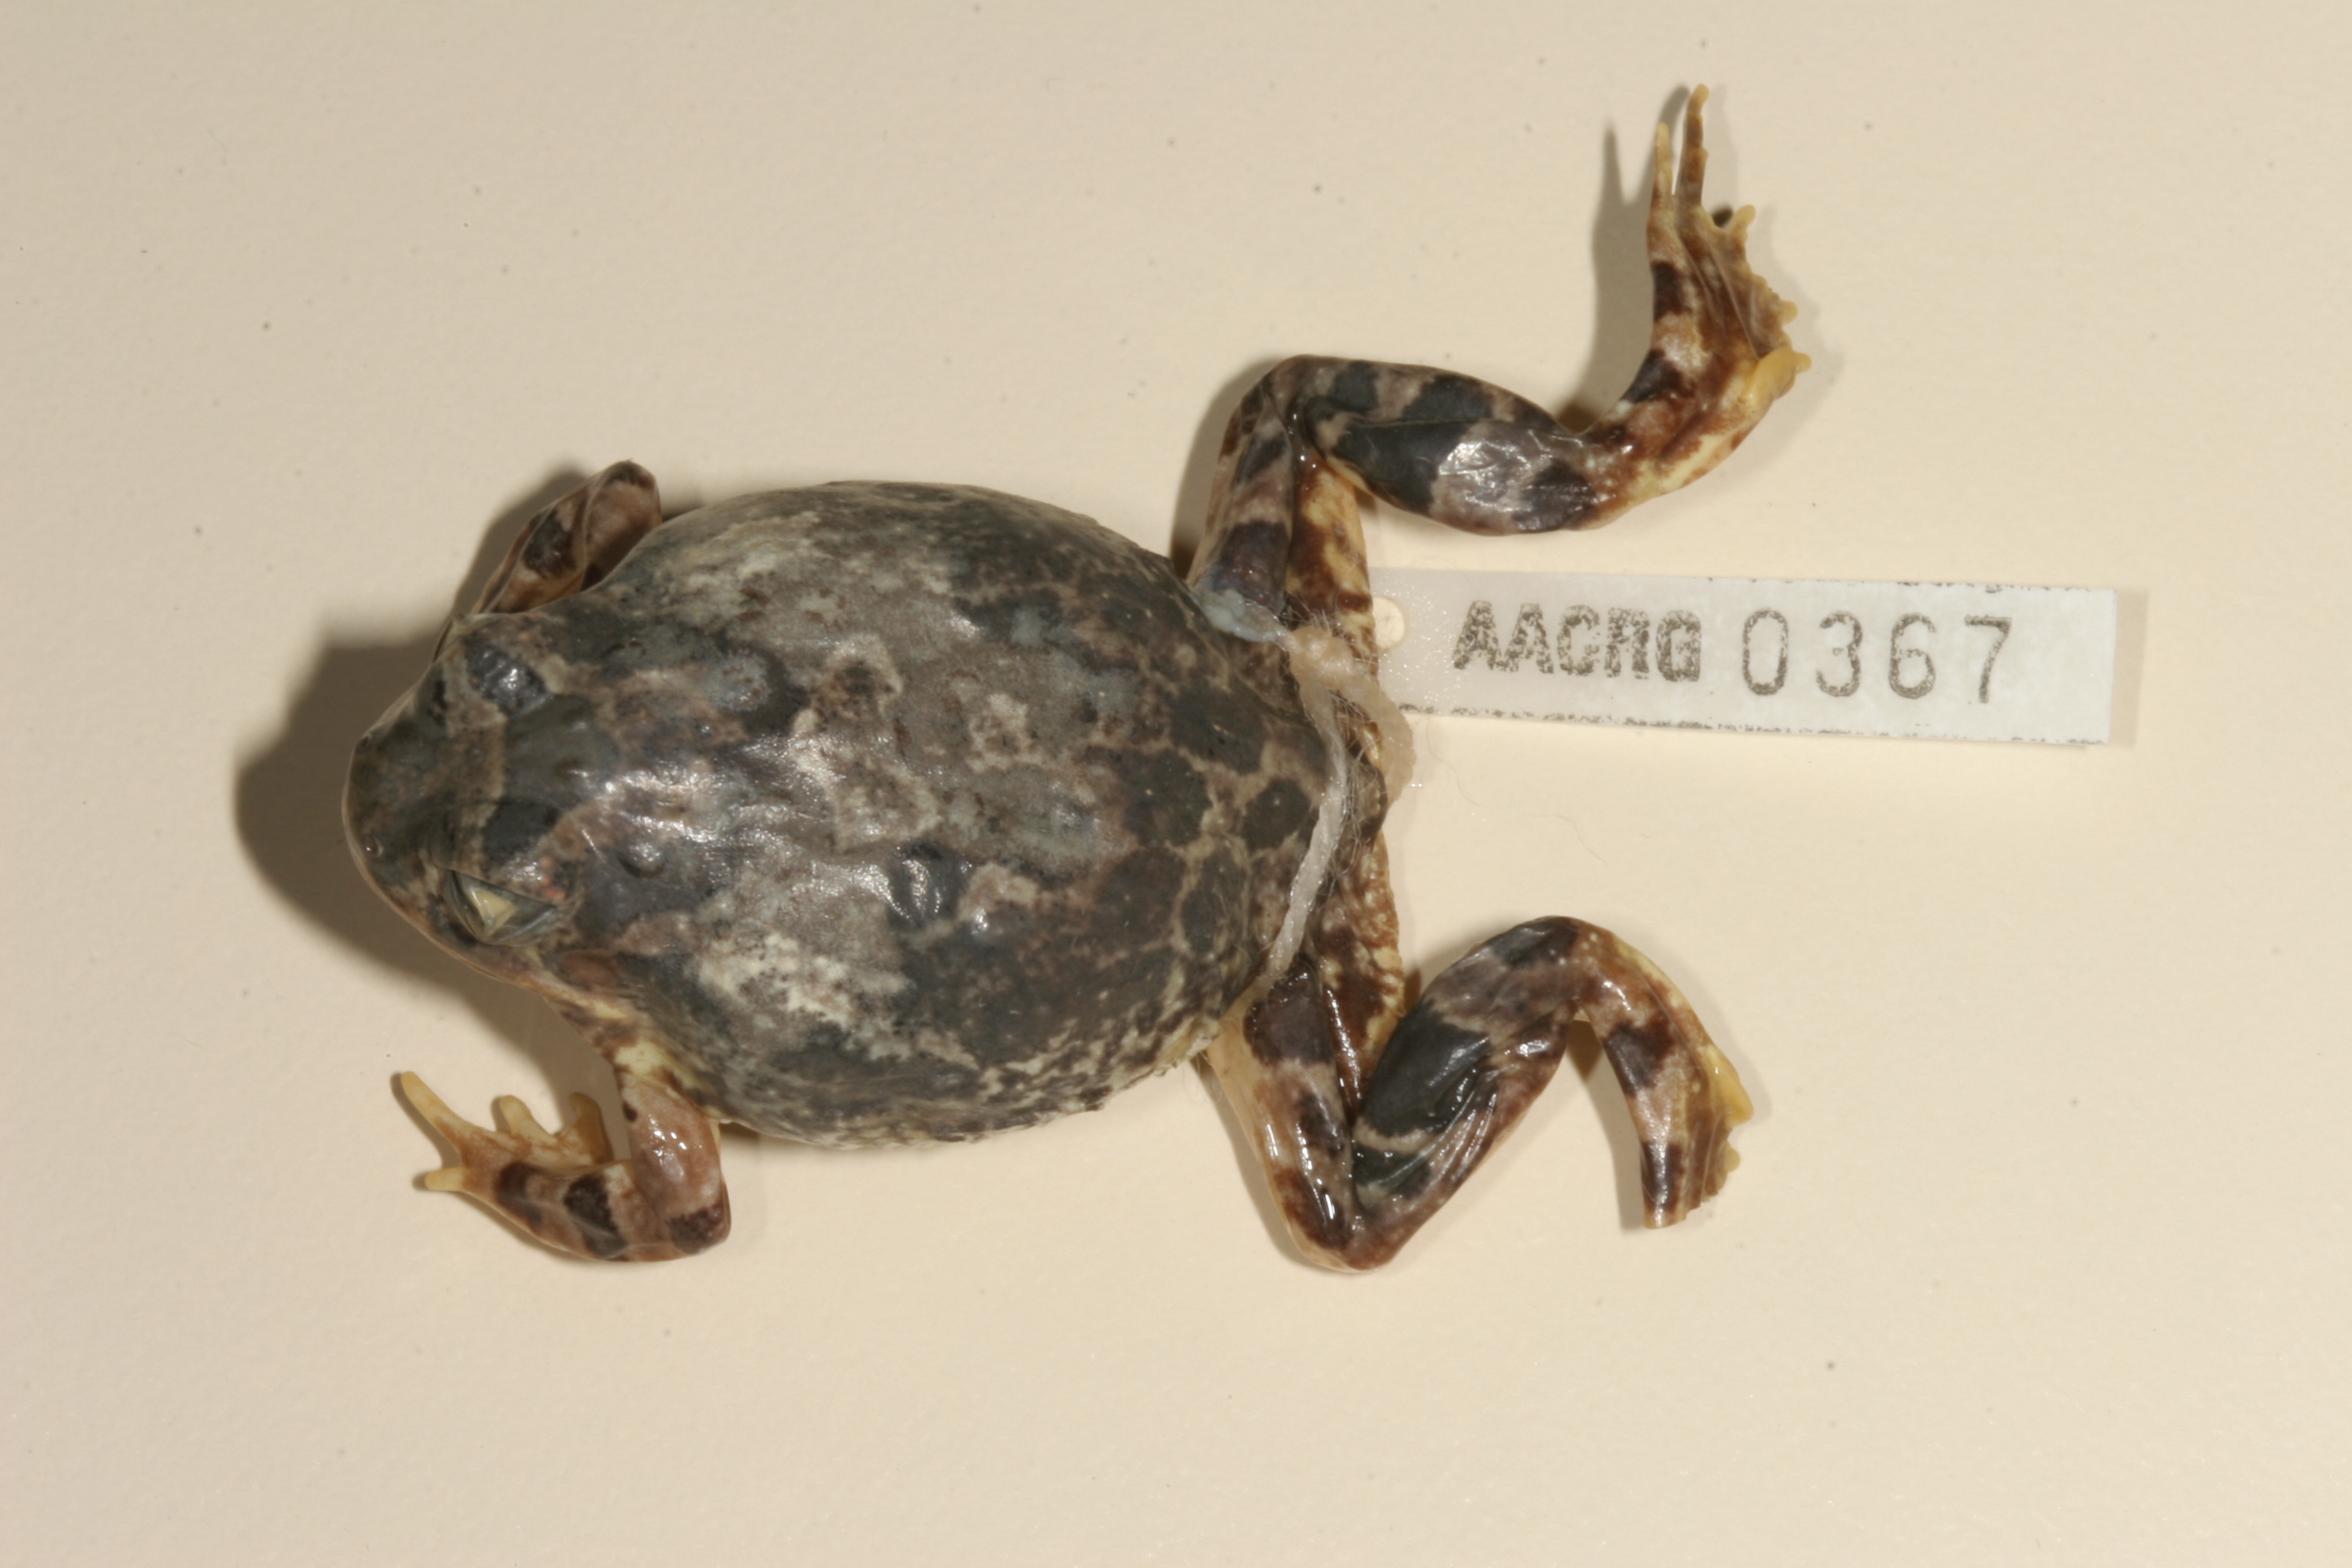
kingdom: Animalia
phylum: Chordata
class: Amphibia
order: Anura
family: Pyxicephalidae
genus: Tomopterna
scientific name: Tomopterna cryptotis
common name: Catequero bullfrog
